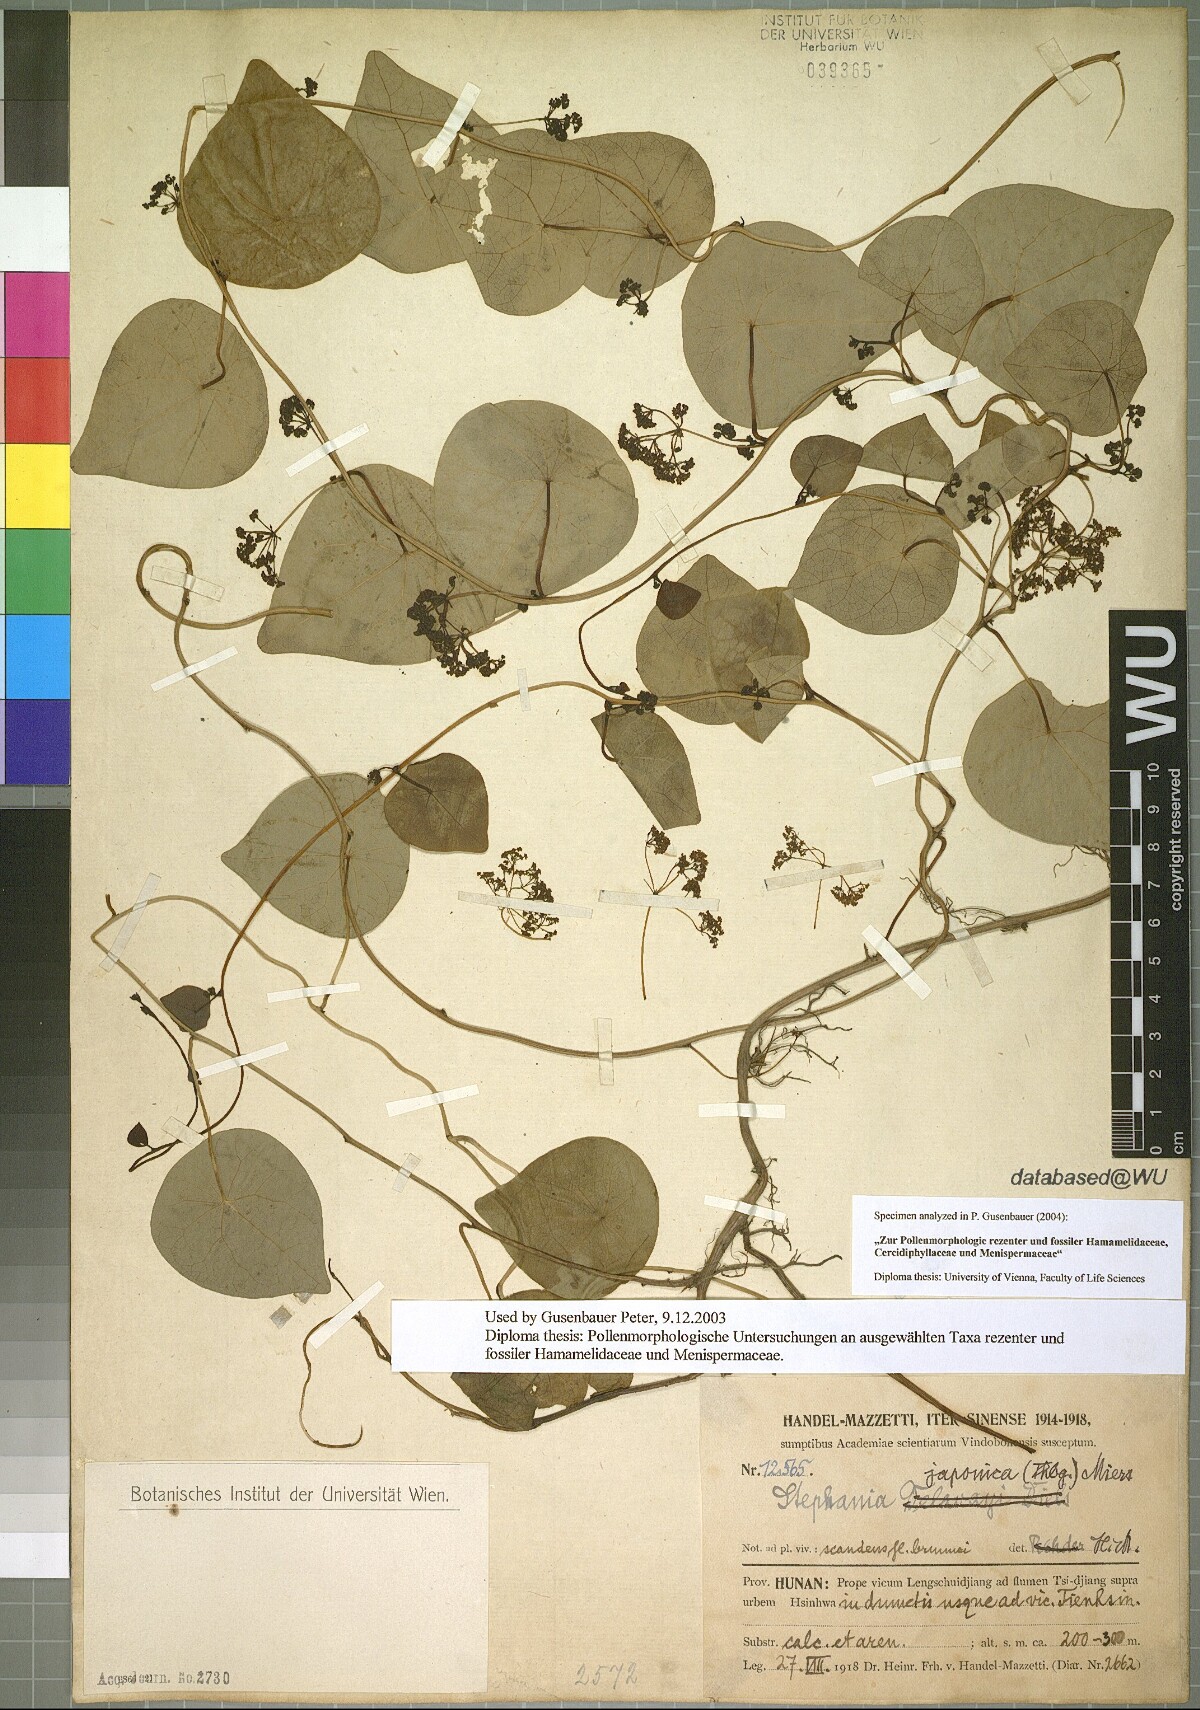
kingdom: Plantae
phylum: Tracheophyta
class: Magnoliopsida
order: Ranunculales
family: Menispermaceae
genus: Stephania
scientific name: Stephania japonica
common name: Snake vine
